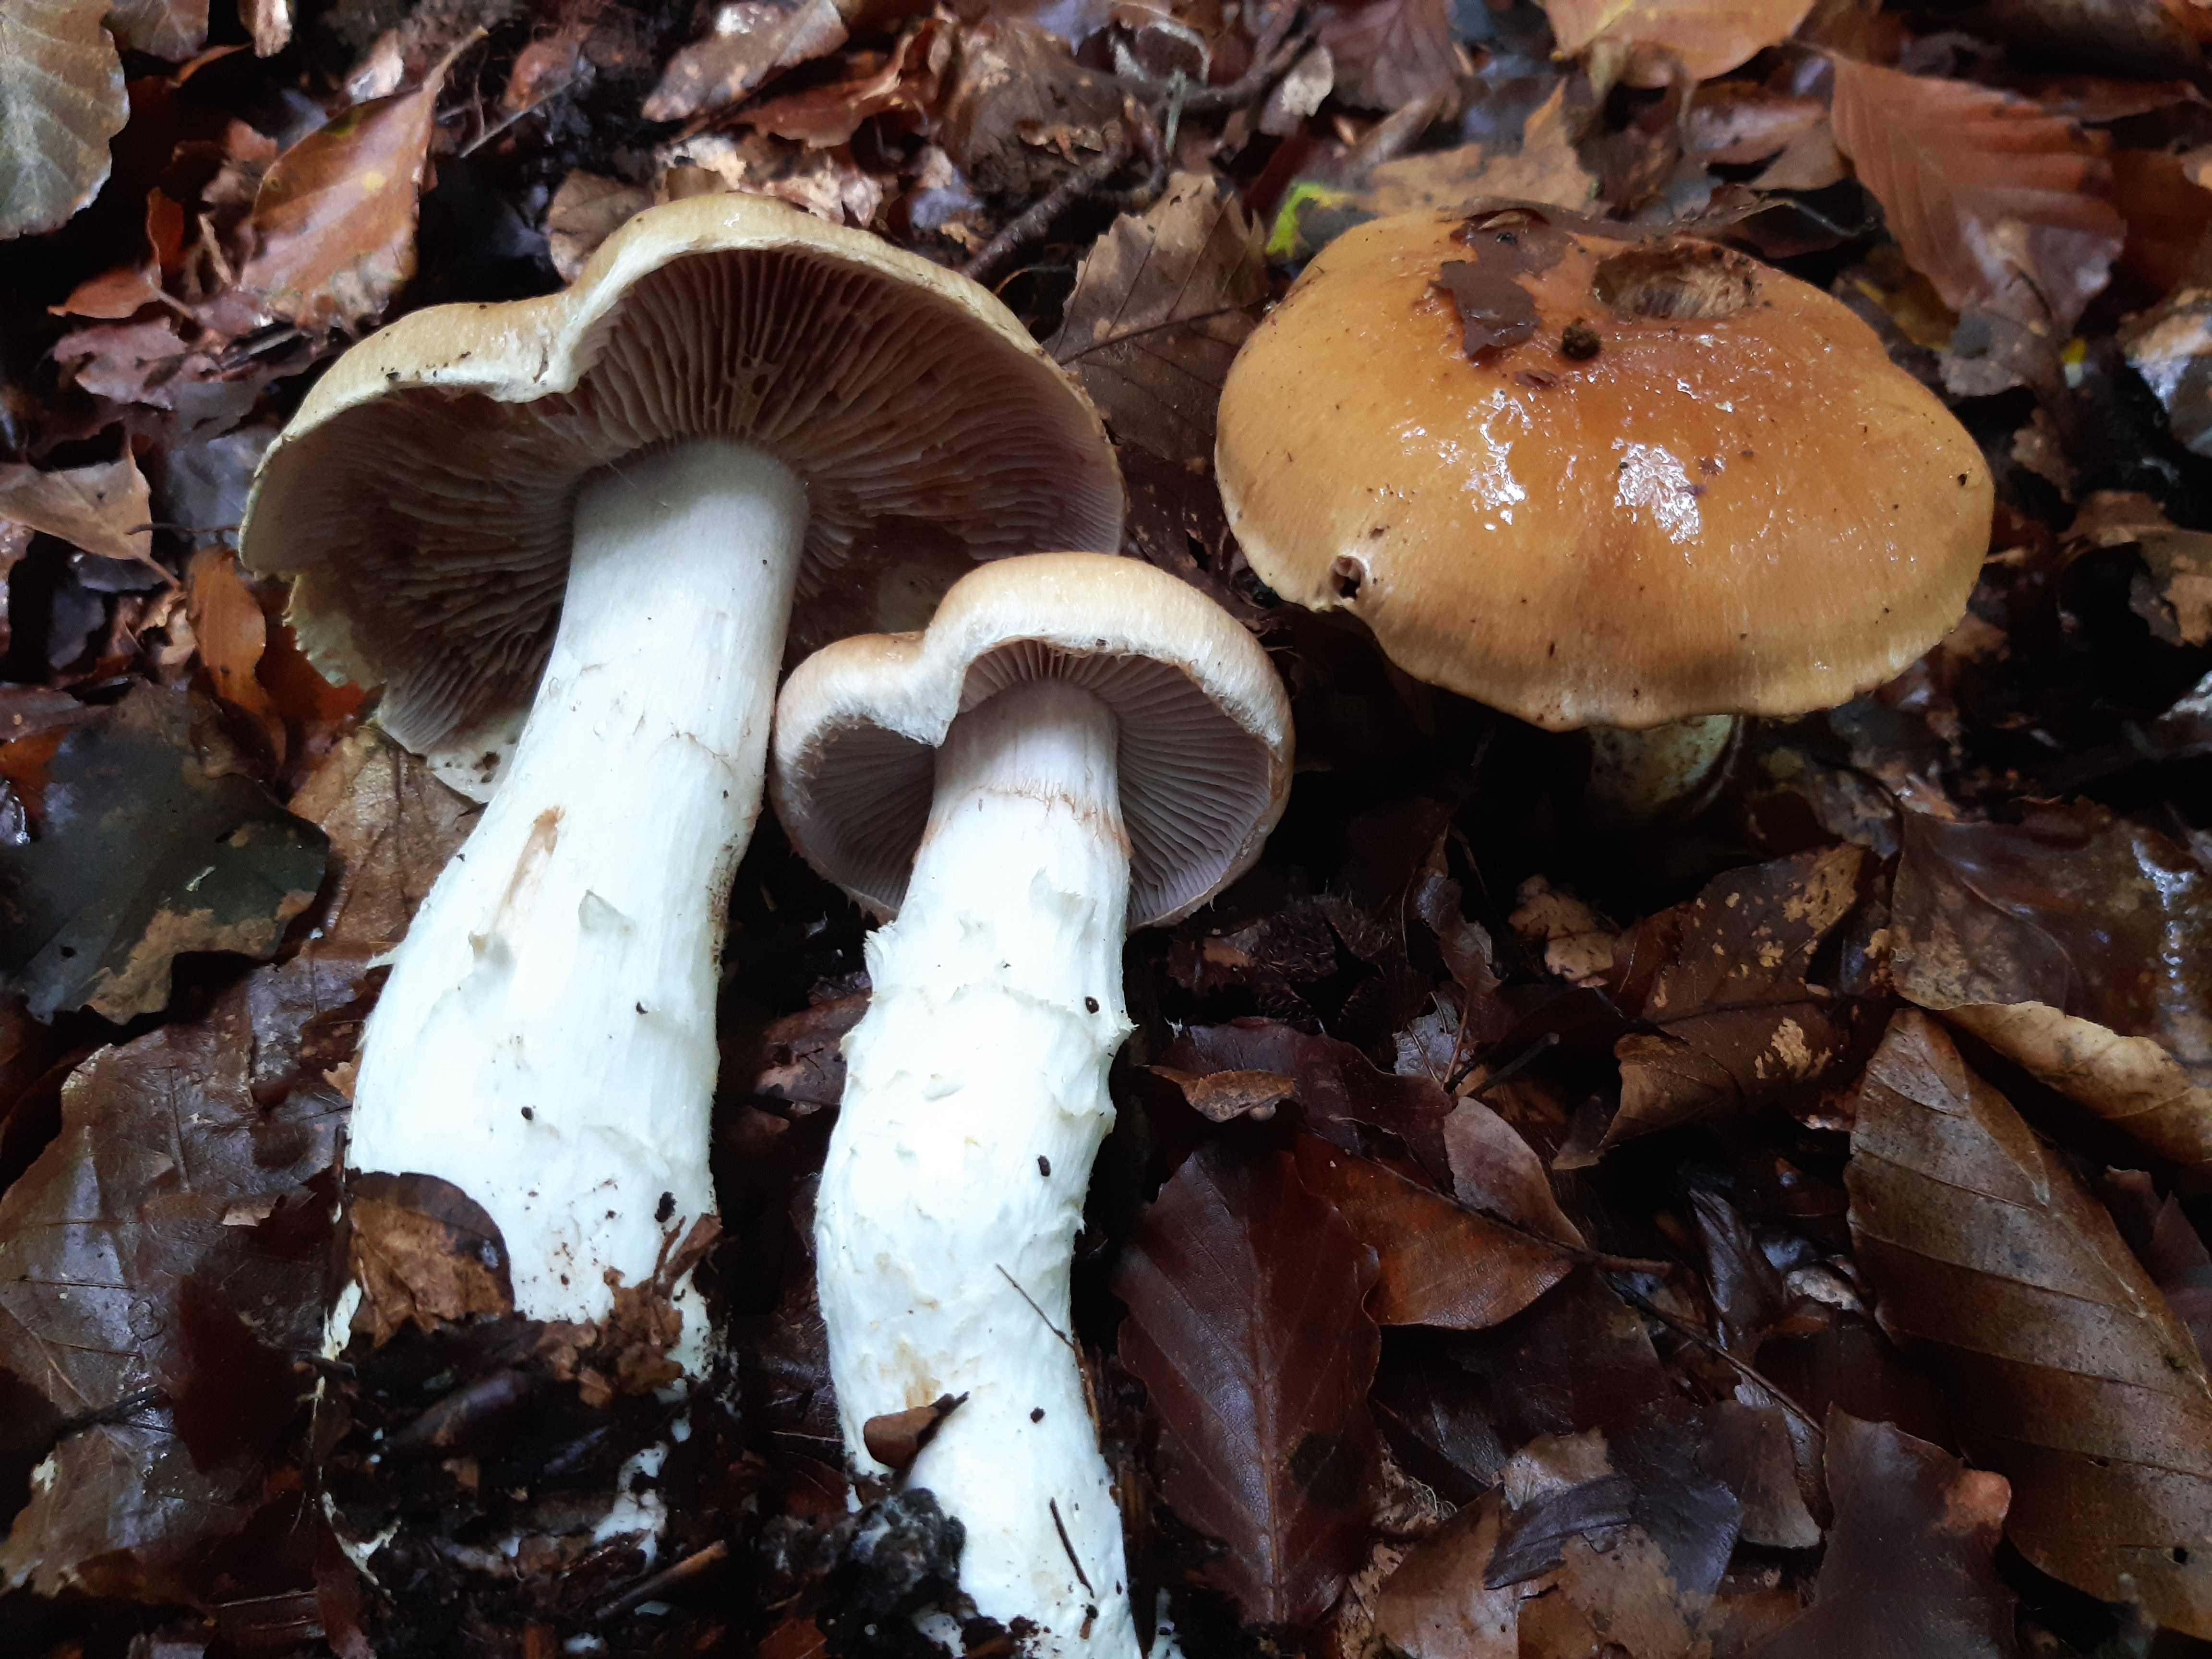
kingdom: Fungi
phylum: Basidiomycota
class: Agaricomycetes
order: Agaricales
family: Cortinariaceae
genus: Phlegmacium
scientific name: Phlegmacium obsoletum
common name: ulve-slørhat
